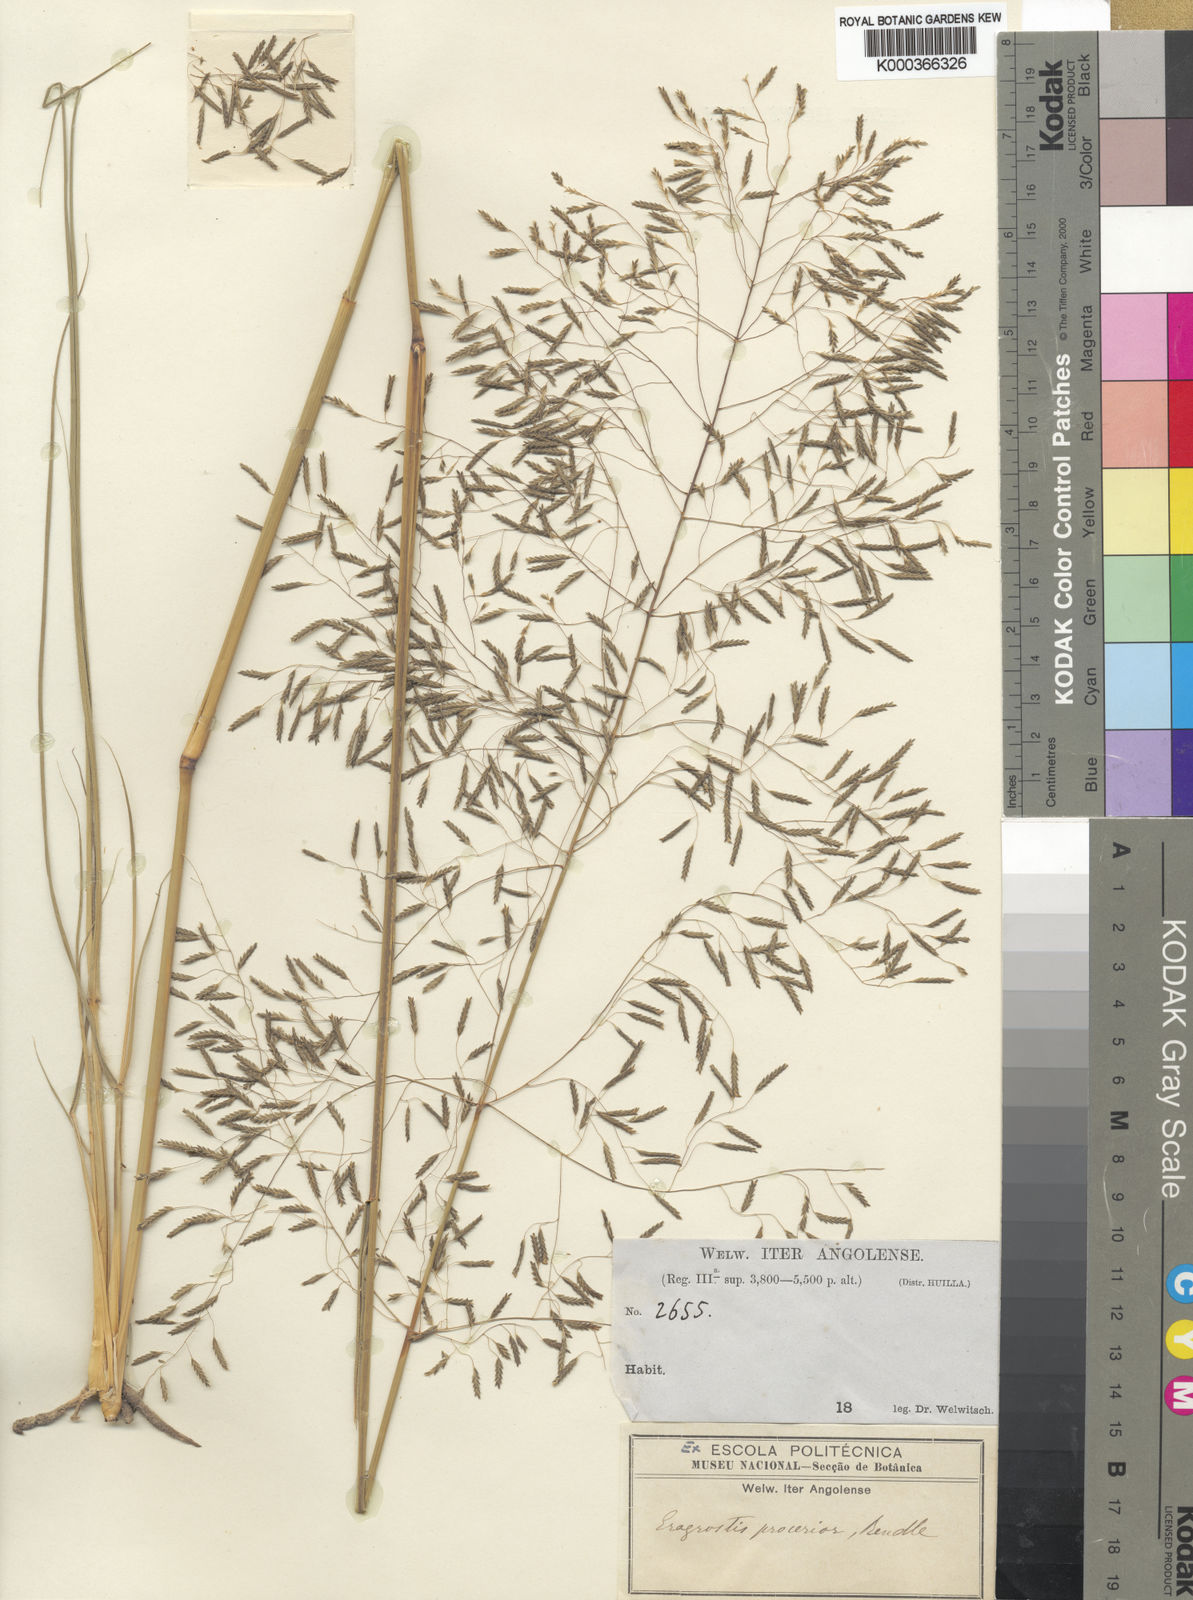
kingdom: Plantae
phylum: Tracheophyta
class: Liliopsida
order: Poales
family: Poaceae
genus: Eragrostis
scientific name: Eragrostis curvula
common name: African love-grass
